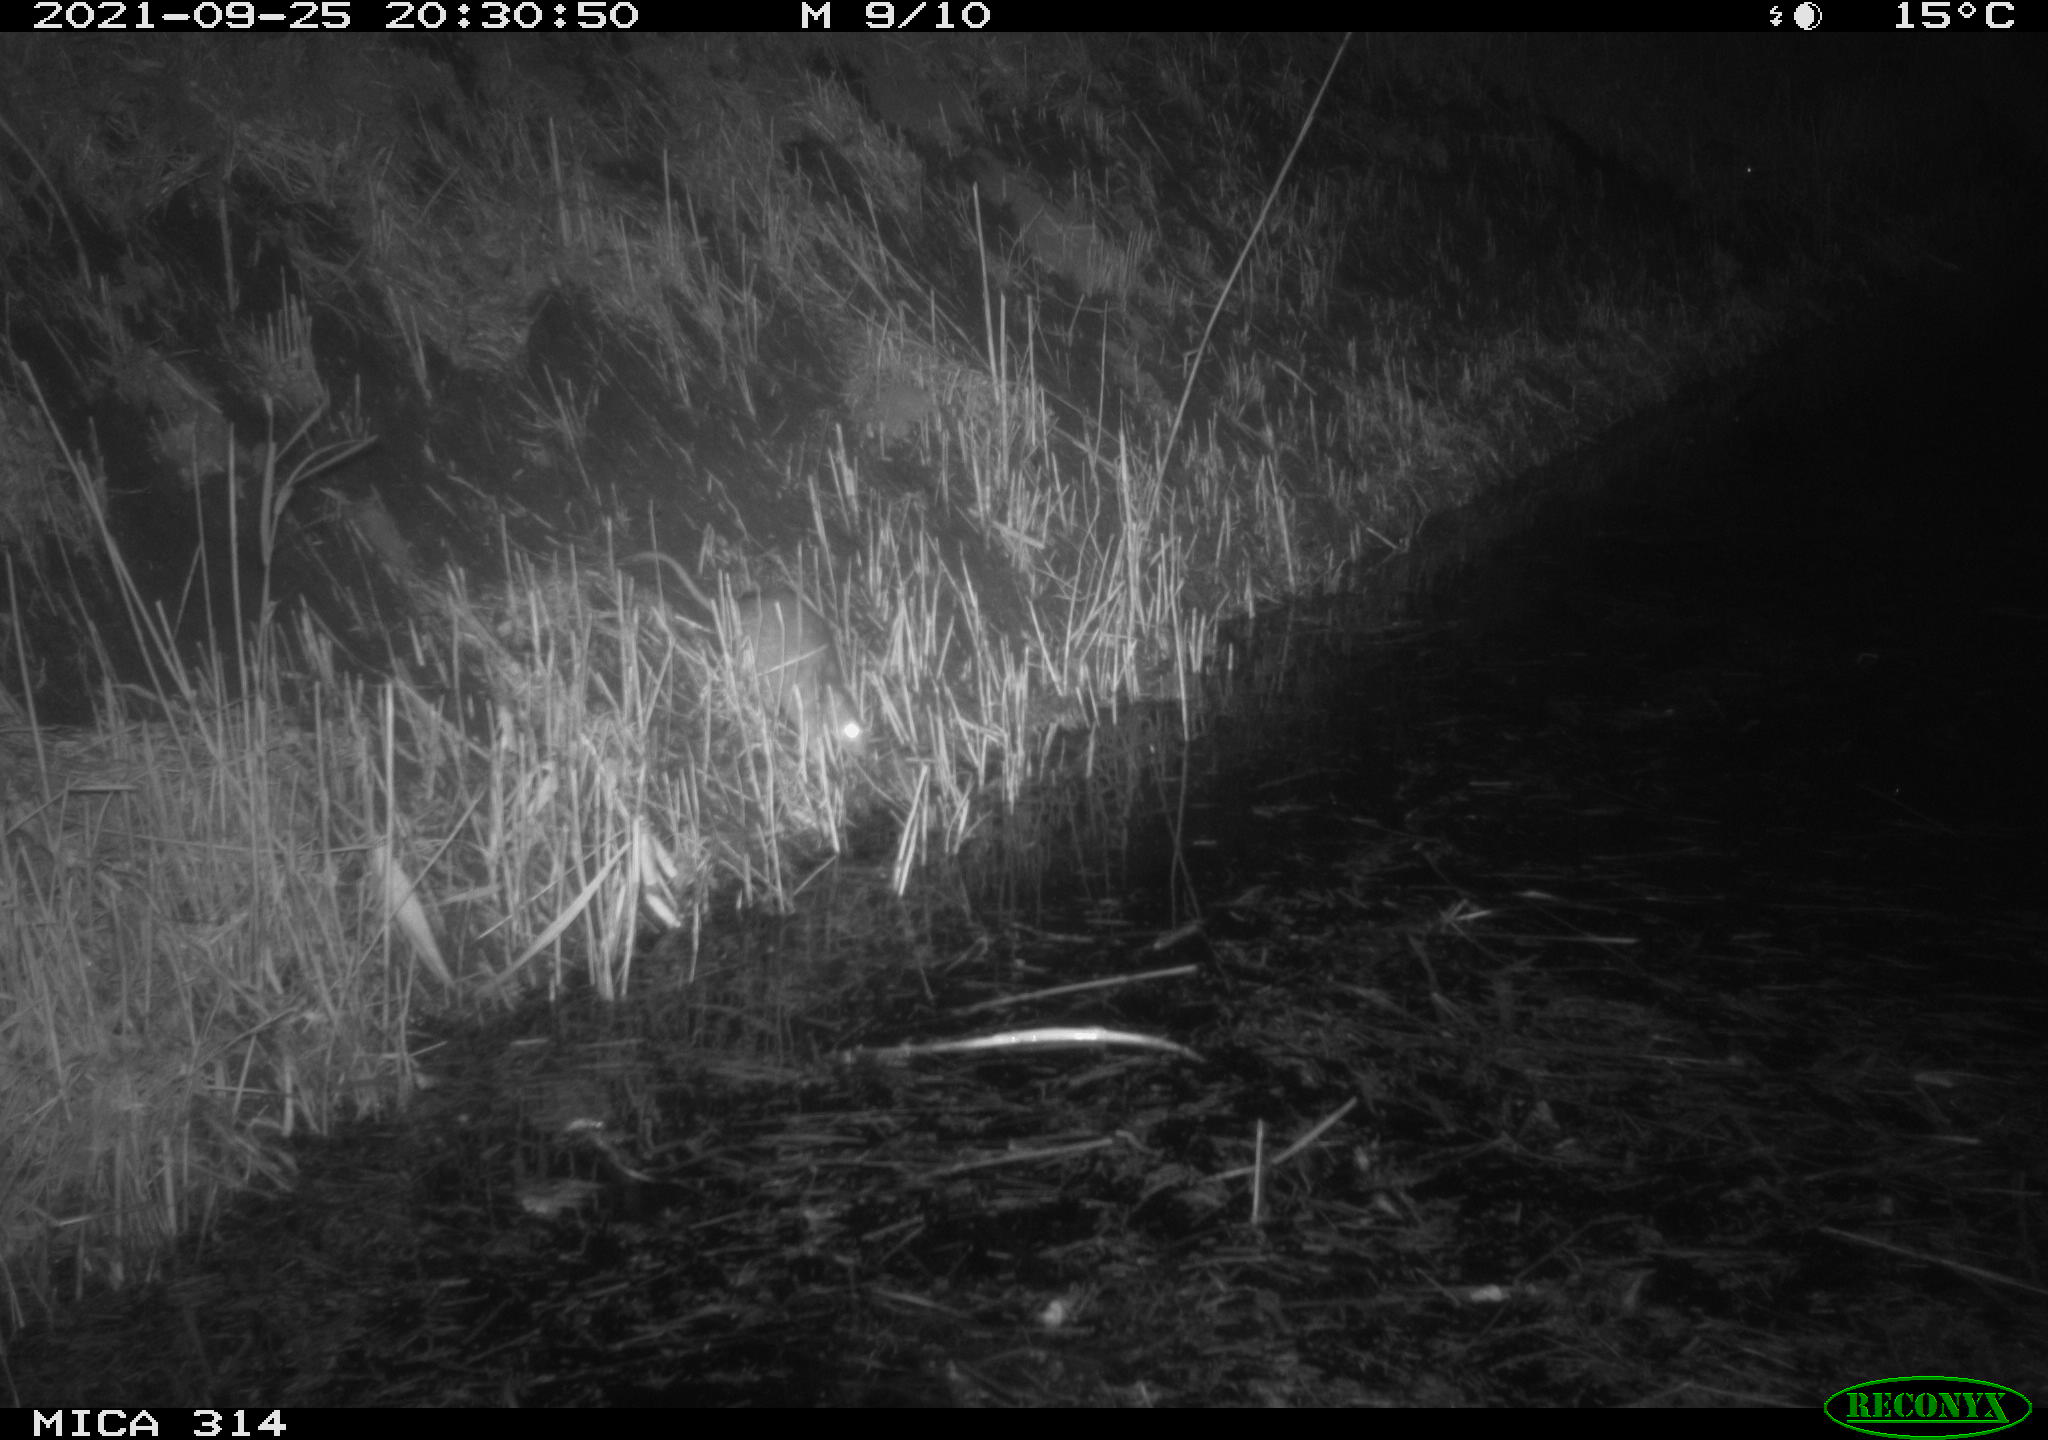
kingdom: Animalia
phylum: Chordata
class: Mammalia
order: Rodentia
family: Muridae
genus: Rattus
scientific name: Rattus norvegicus
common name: Brown rat
